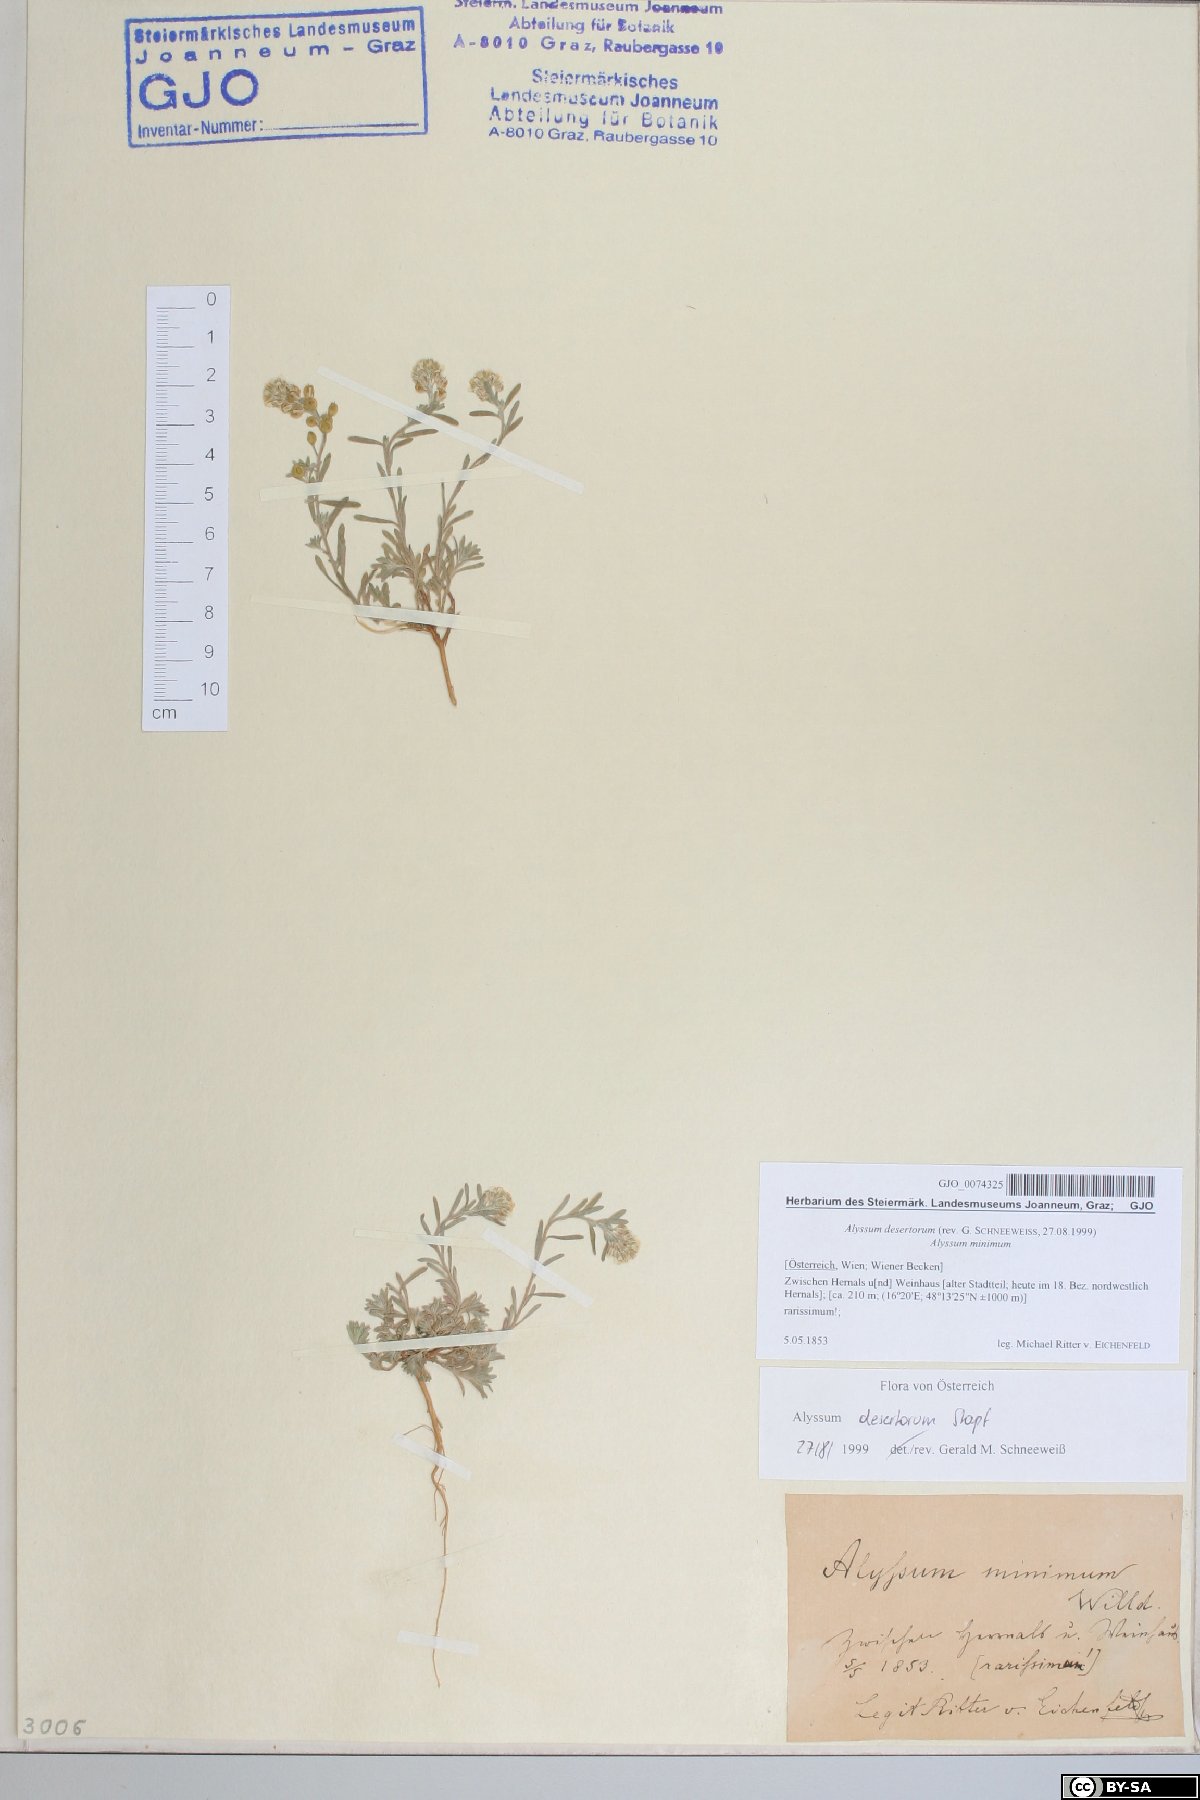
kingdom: Plantae
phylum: Tracheophyta
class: Magnoliopsida
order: Brassicales
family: Brassicaceae
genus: Alyssum
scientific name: Alyssum turkestanicum
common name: Desert alyssum
